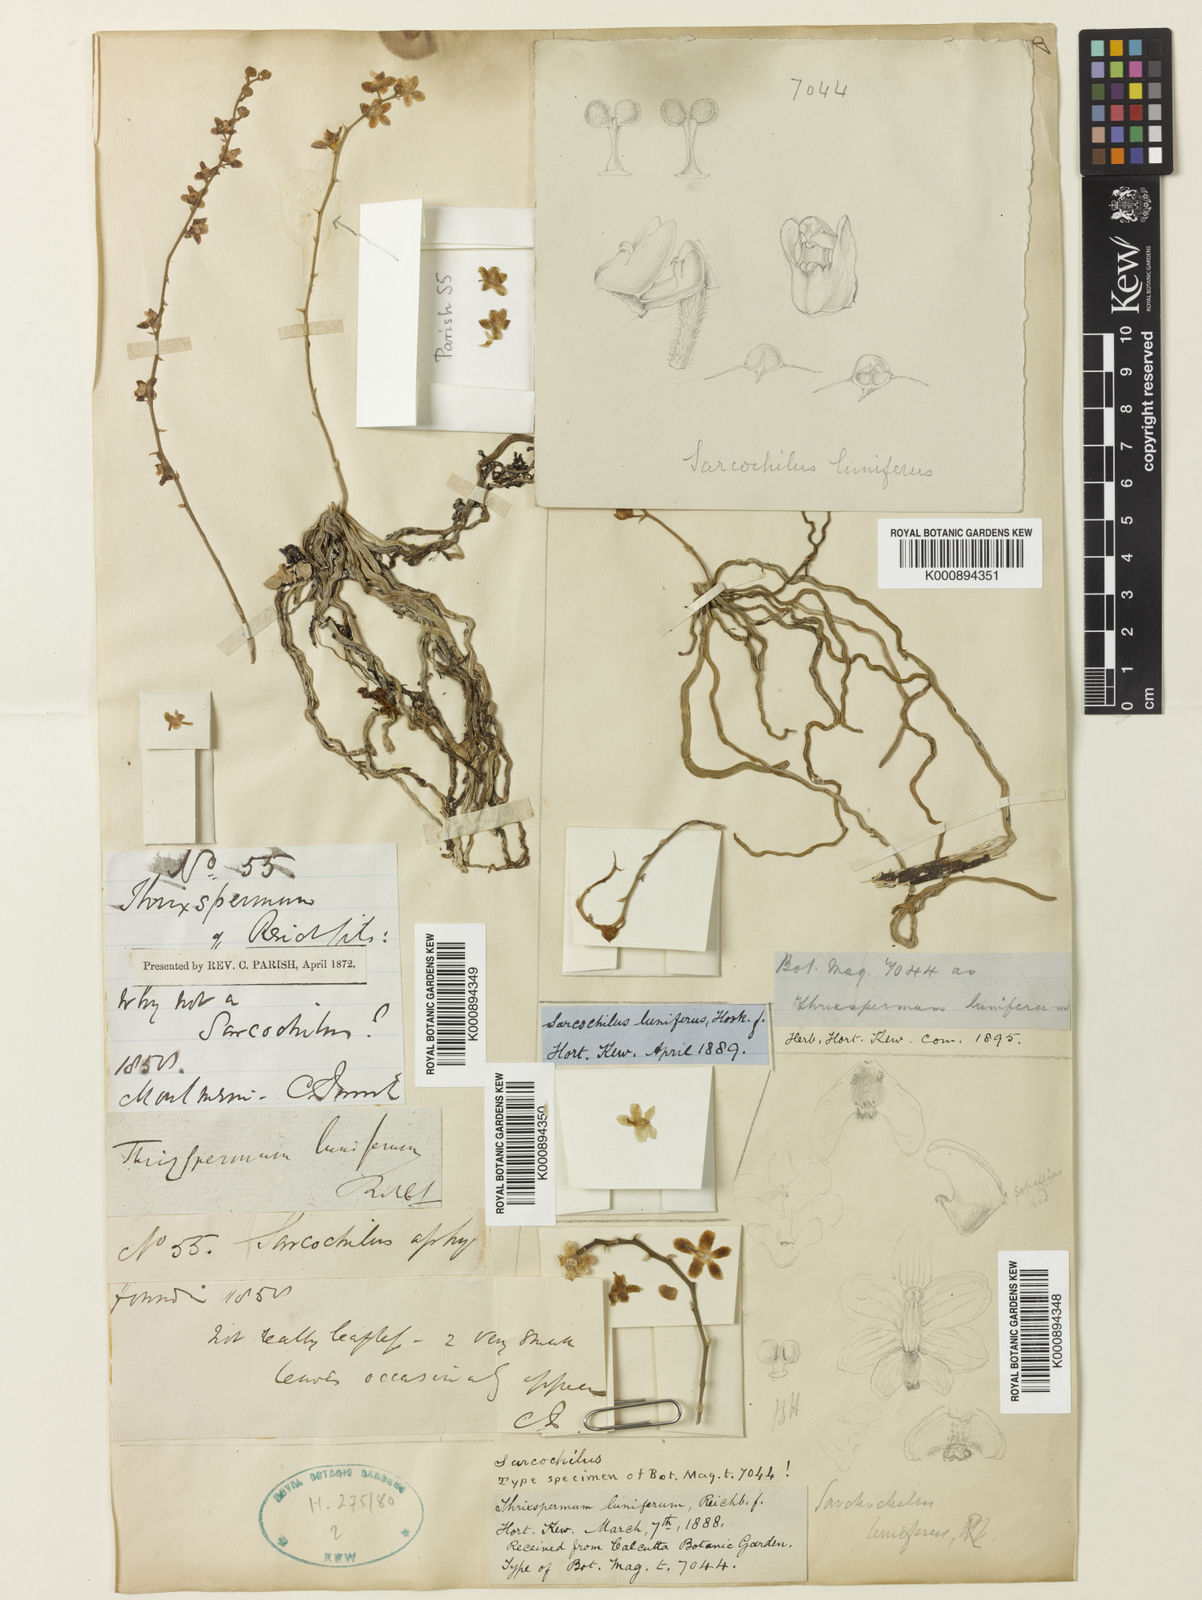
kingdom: Plantae
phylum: Tracheophyta
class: Liliopsida
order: Asparagales
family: Orchidaceae
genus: Chiloschista
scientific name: Chiloschista lunifera
